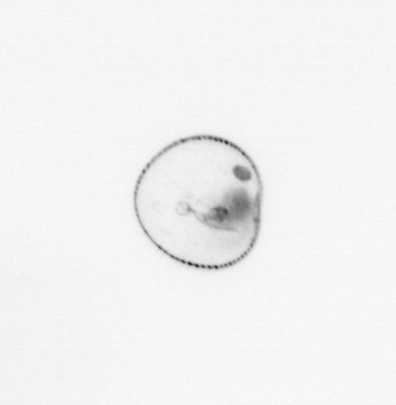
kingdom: Chromista
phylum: Myzozoa
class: Dinophyceae
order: Noctilucales
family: Noctilucaceae
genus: Noctiluca
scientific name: Noctiluca scintillans
